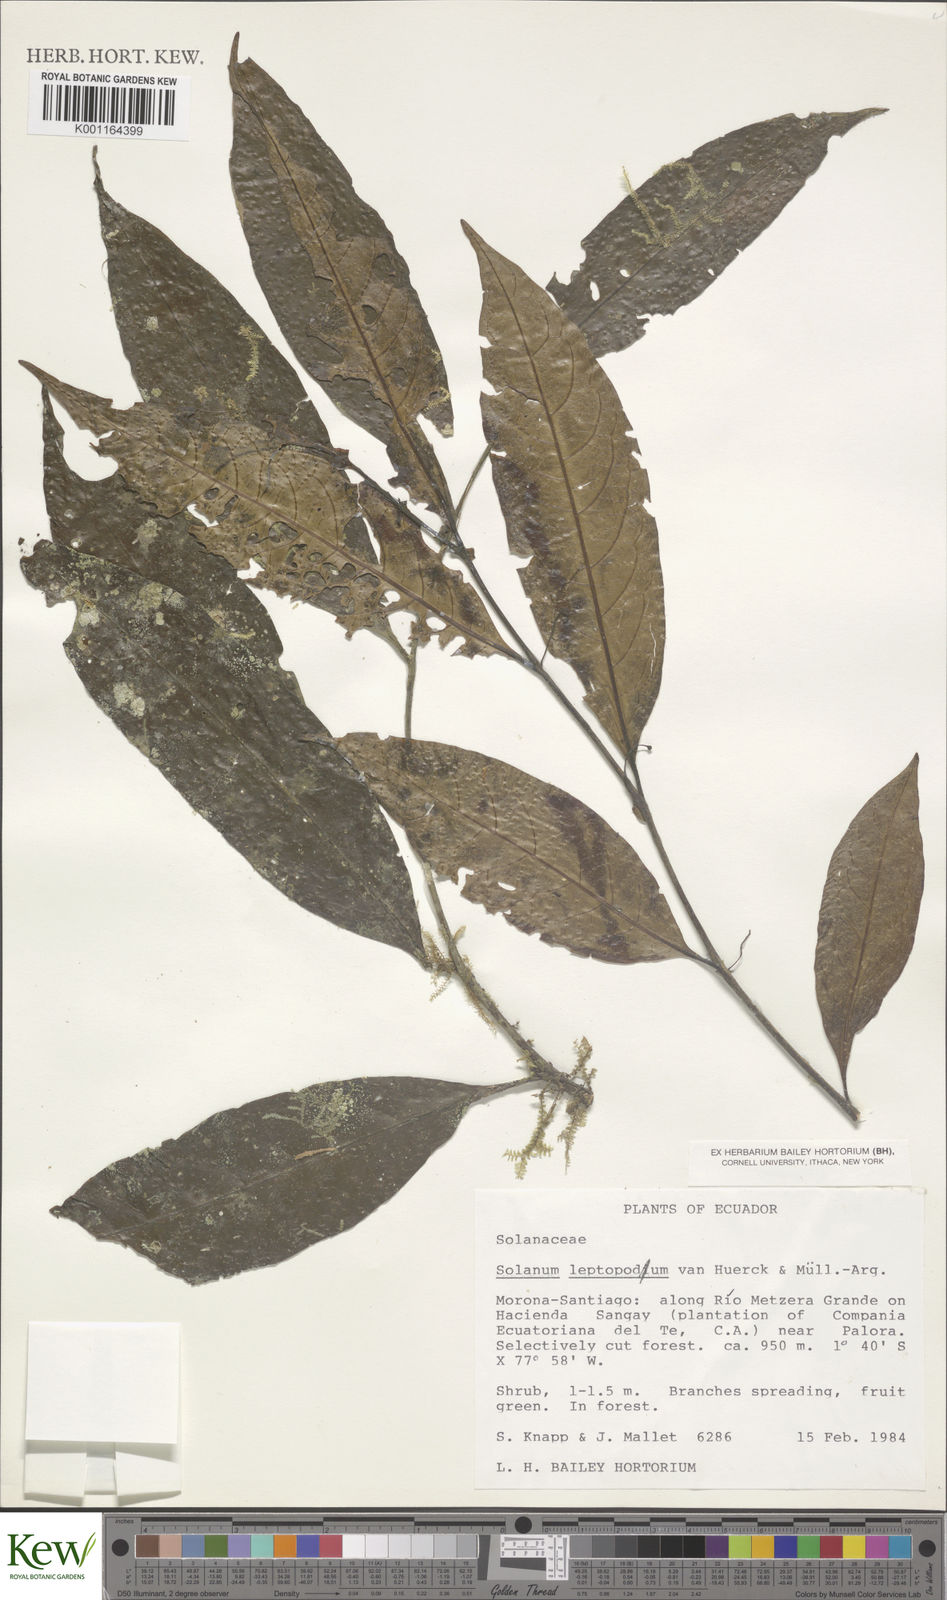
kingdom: Plantae
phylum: Tracheophyta
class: Magnoliopsida
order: Solanales
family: Solanaceae
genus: Solanum
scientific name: Solanum leptopodum
